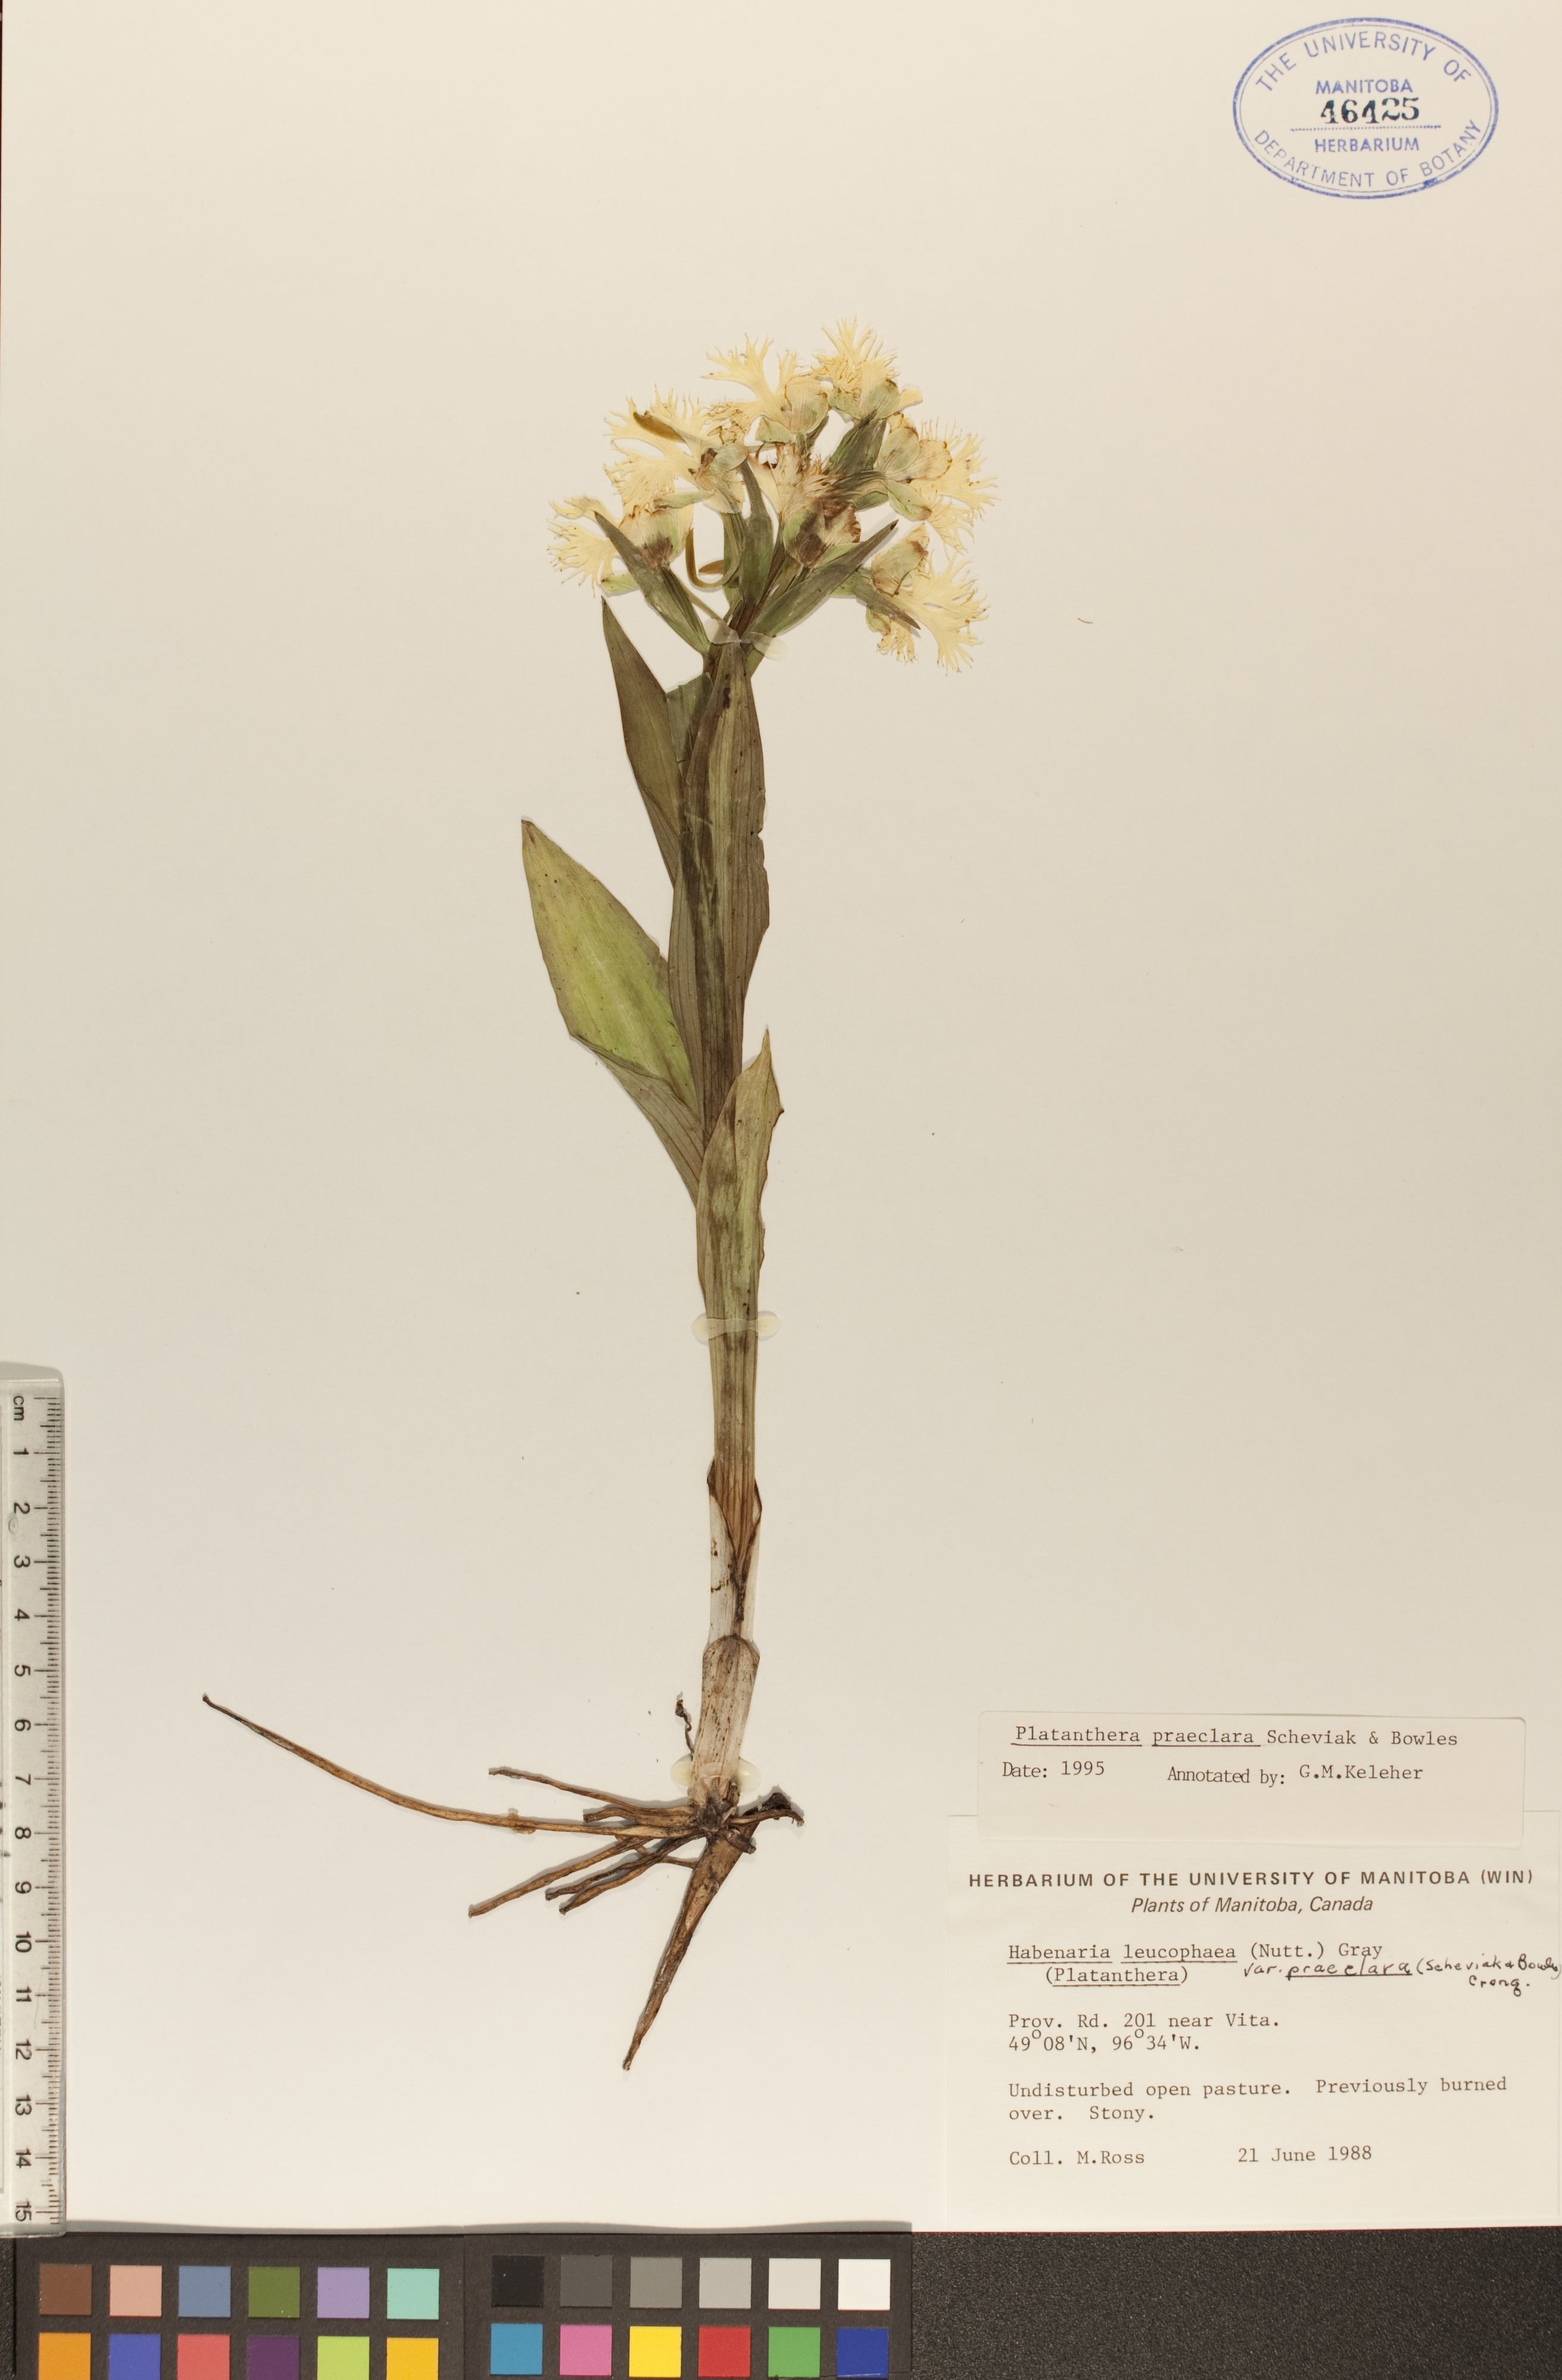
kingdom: Plantae
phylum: Tracheophyta
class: Liliopsida
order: Asparagales
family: Orchidaceae
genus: Platanthera
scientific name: Platanthera praeclara
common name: Western prairie fringed orchid
